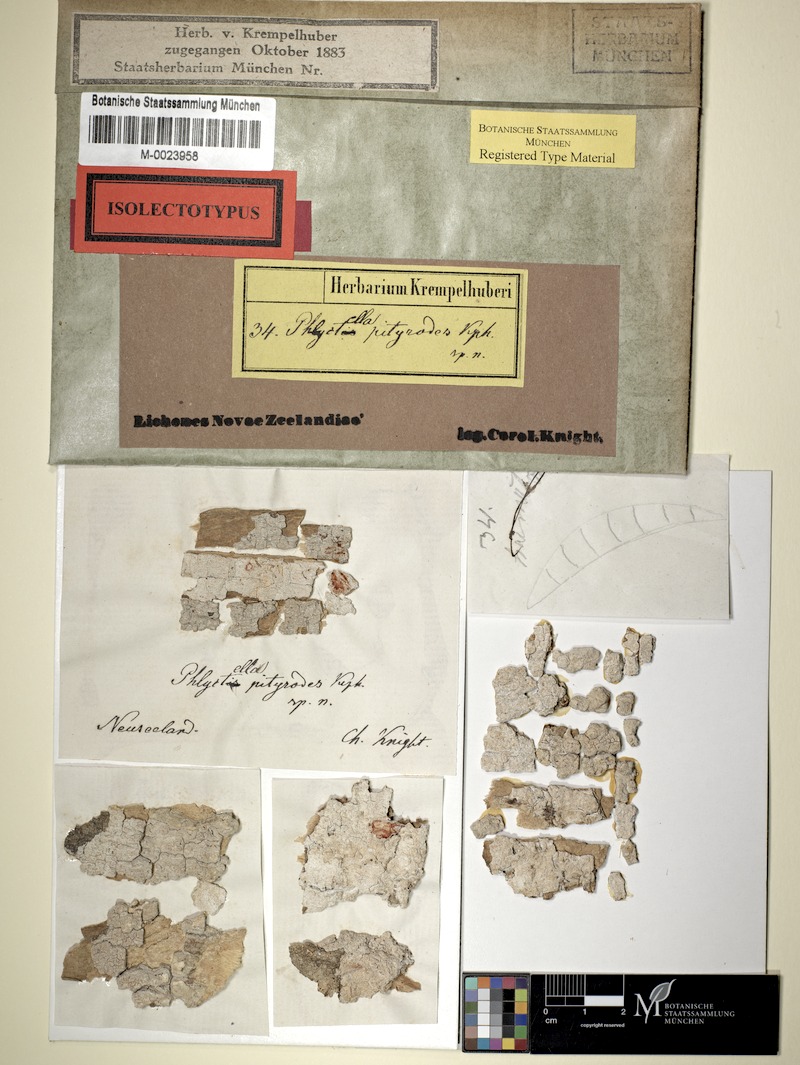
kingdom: Fungi
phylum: Ascomycota
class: Lecanoromycetes
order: Ostropales
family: Phlyctidaceae
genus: Phlyctis
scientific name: Phlyctis
